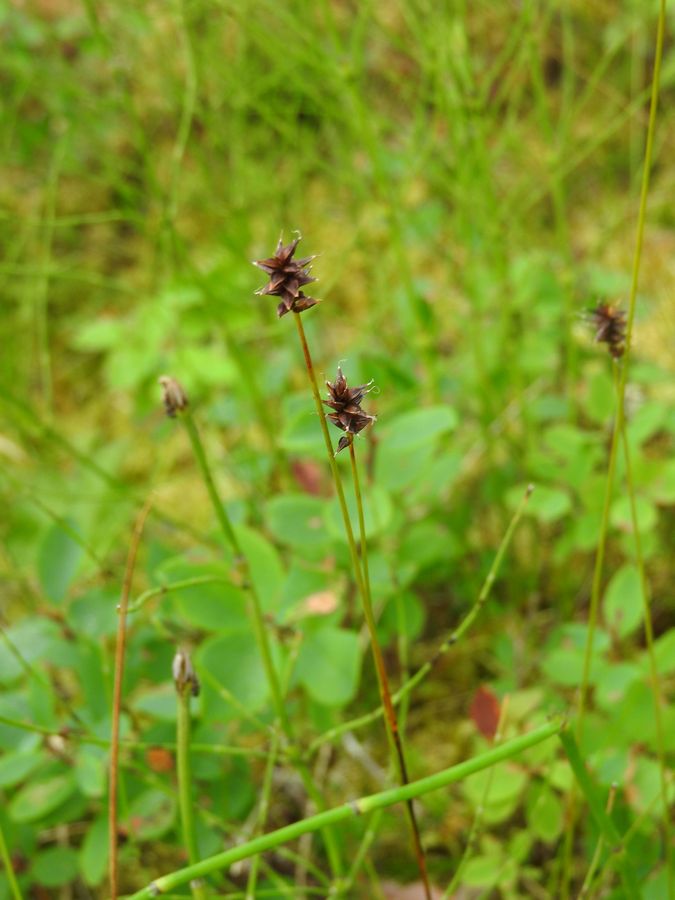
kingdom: Plantae
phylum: Tracheophyta
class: Liliopsida
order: Poales
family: Cyperaceae
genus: Carex
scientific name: Carex dioica
